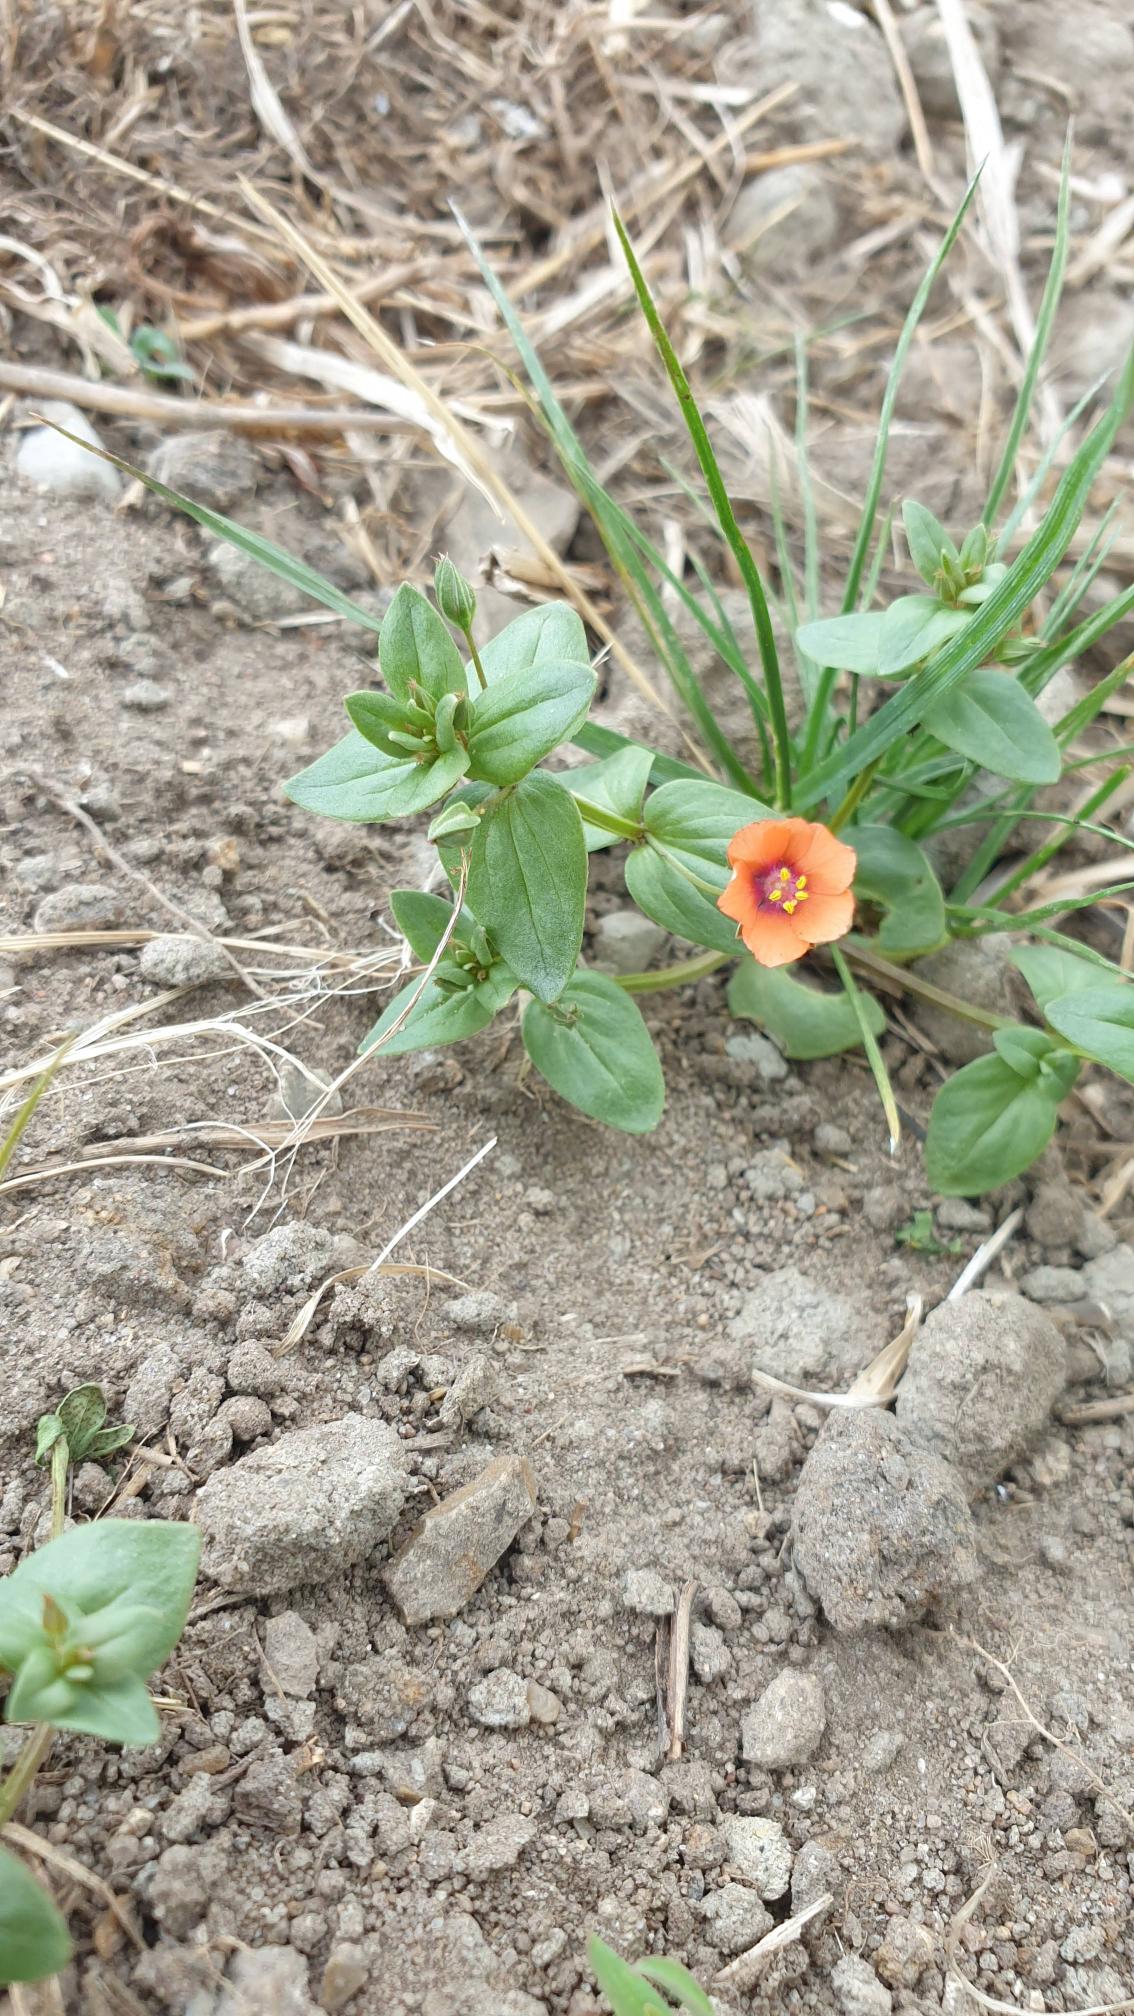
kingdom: Plantae
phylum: Tracheophyta
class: Magnoliopsida
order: Ericales
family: Primulaceae
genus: Lysimachia
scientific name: Lysimachia arvensis
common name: Rød arve
